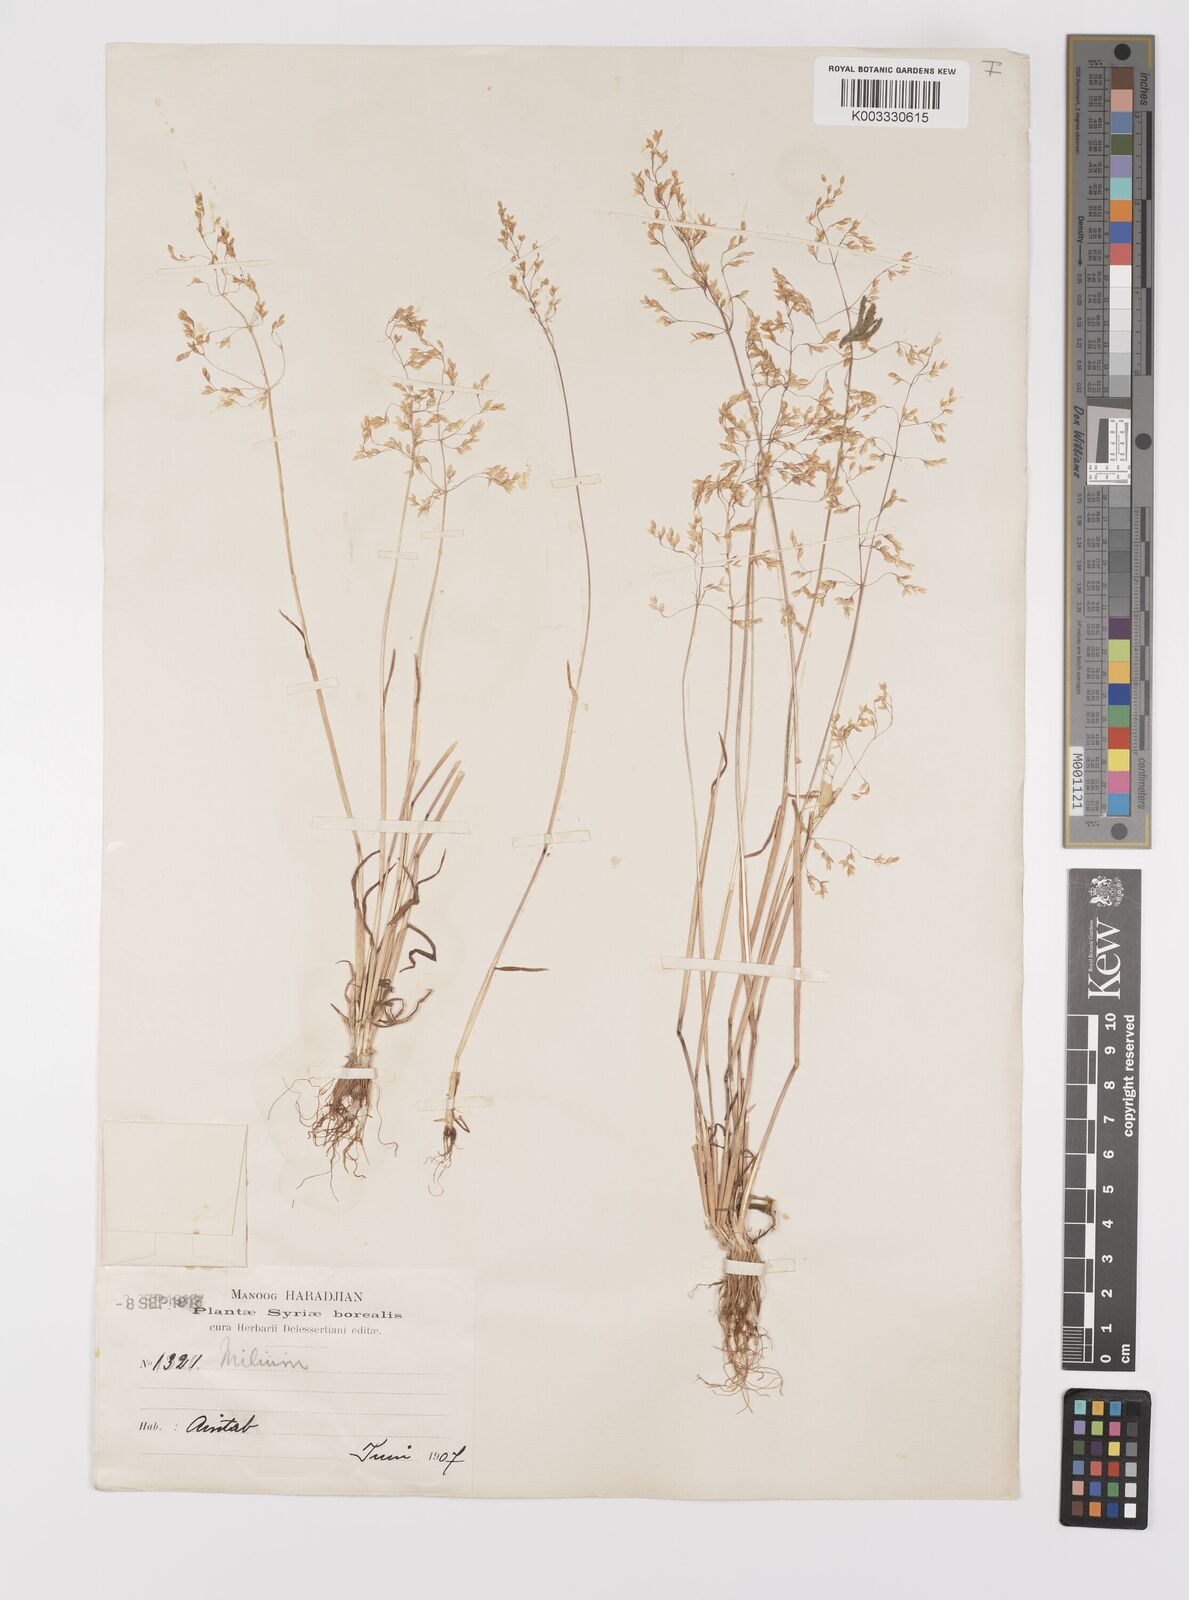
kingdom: Plantae
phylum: Tracheophyta
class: Liliopsida
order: Poales
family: Poaceae
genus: Milium
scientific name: Milium vernale
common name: Early millet
